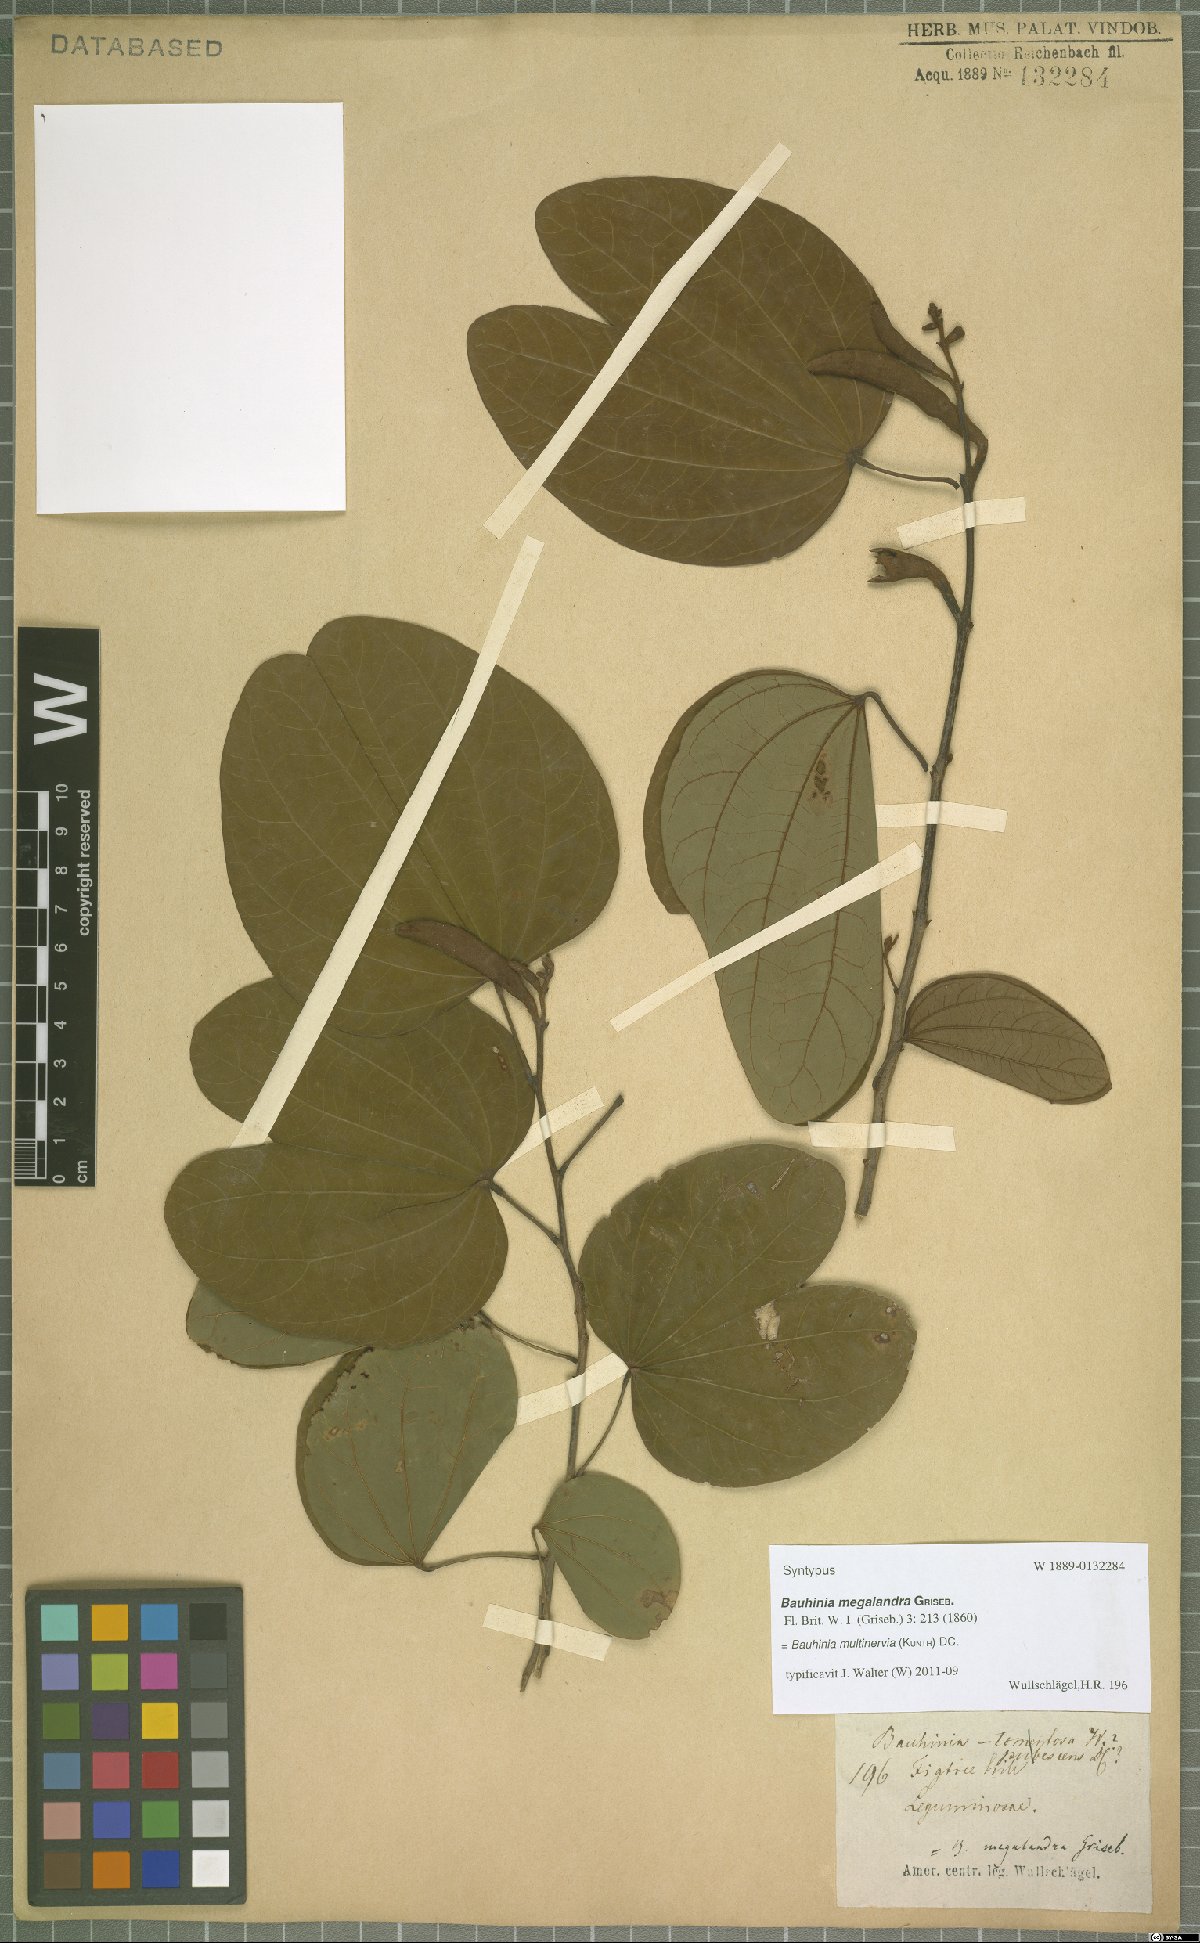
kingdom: Plantae
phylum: Tracheophyta
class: Magnoliopsida
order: Fabales
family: Fabaceae
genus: Bauhinia
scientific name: Bauhinia multinervia
